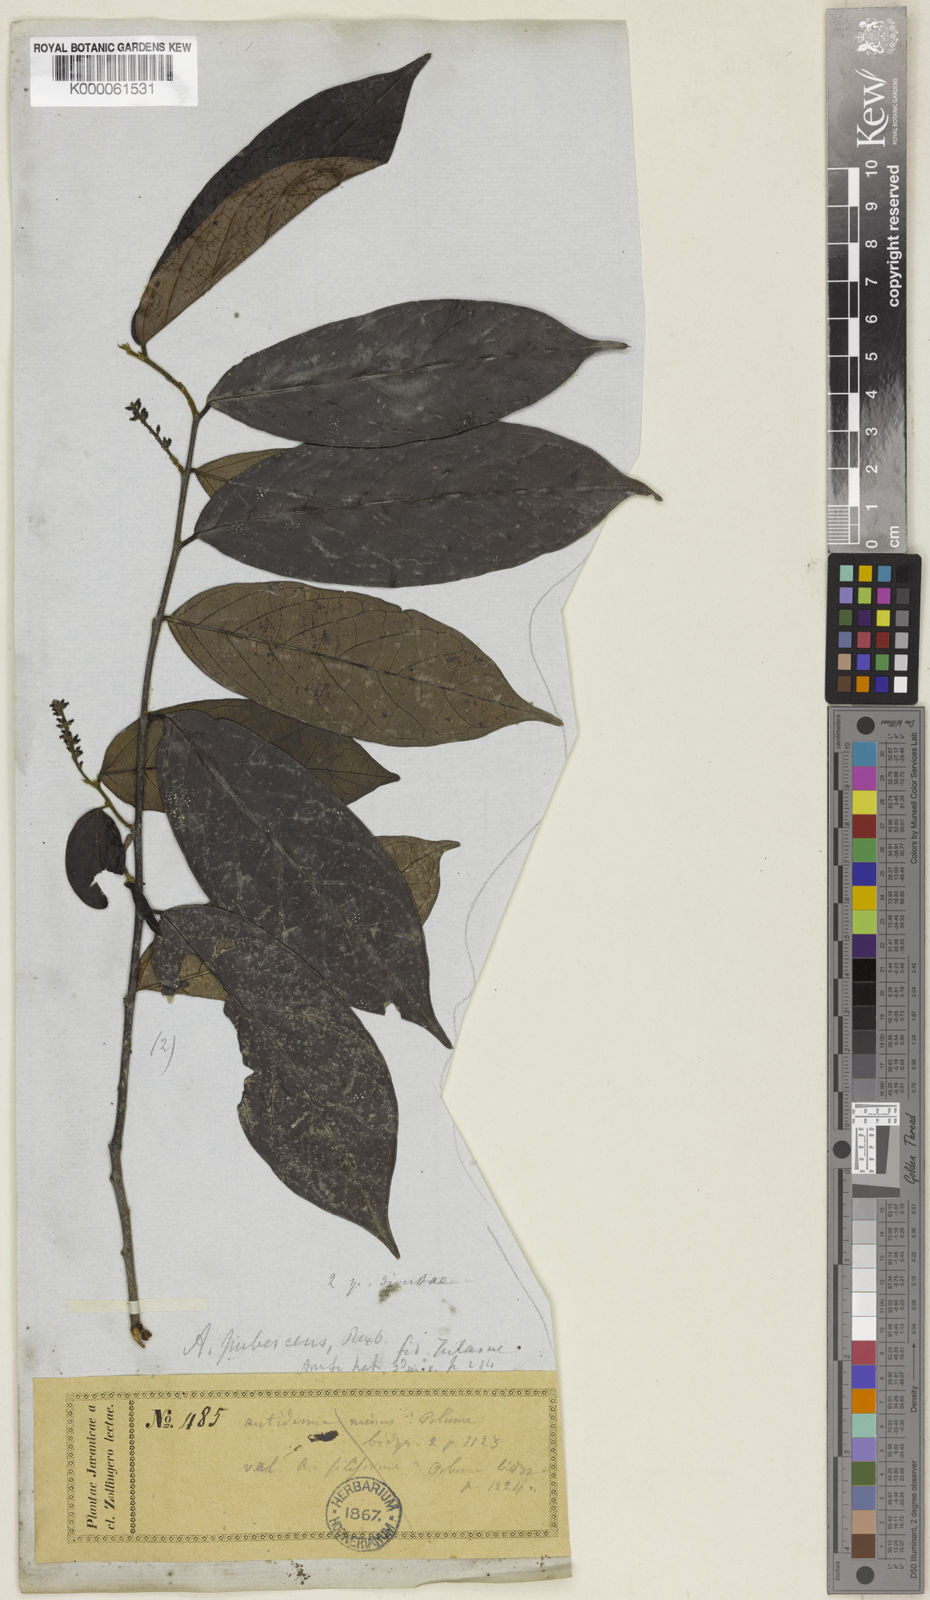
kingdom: Plantae
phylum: Tracheophyta
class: Magnoliopsida
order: Malpighiales
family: Phyllanthaceae
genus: Antidesma
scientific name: Antidesma montanum
